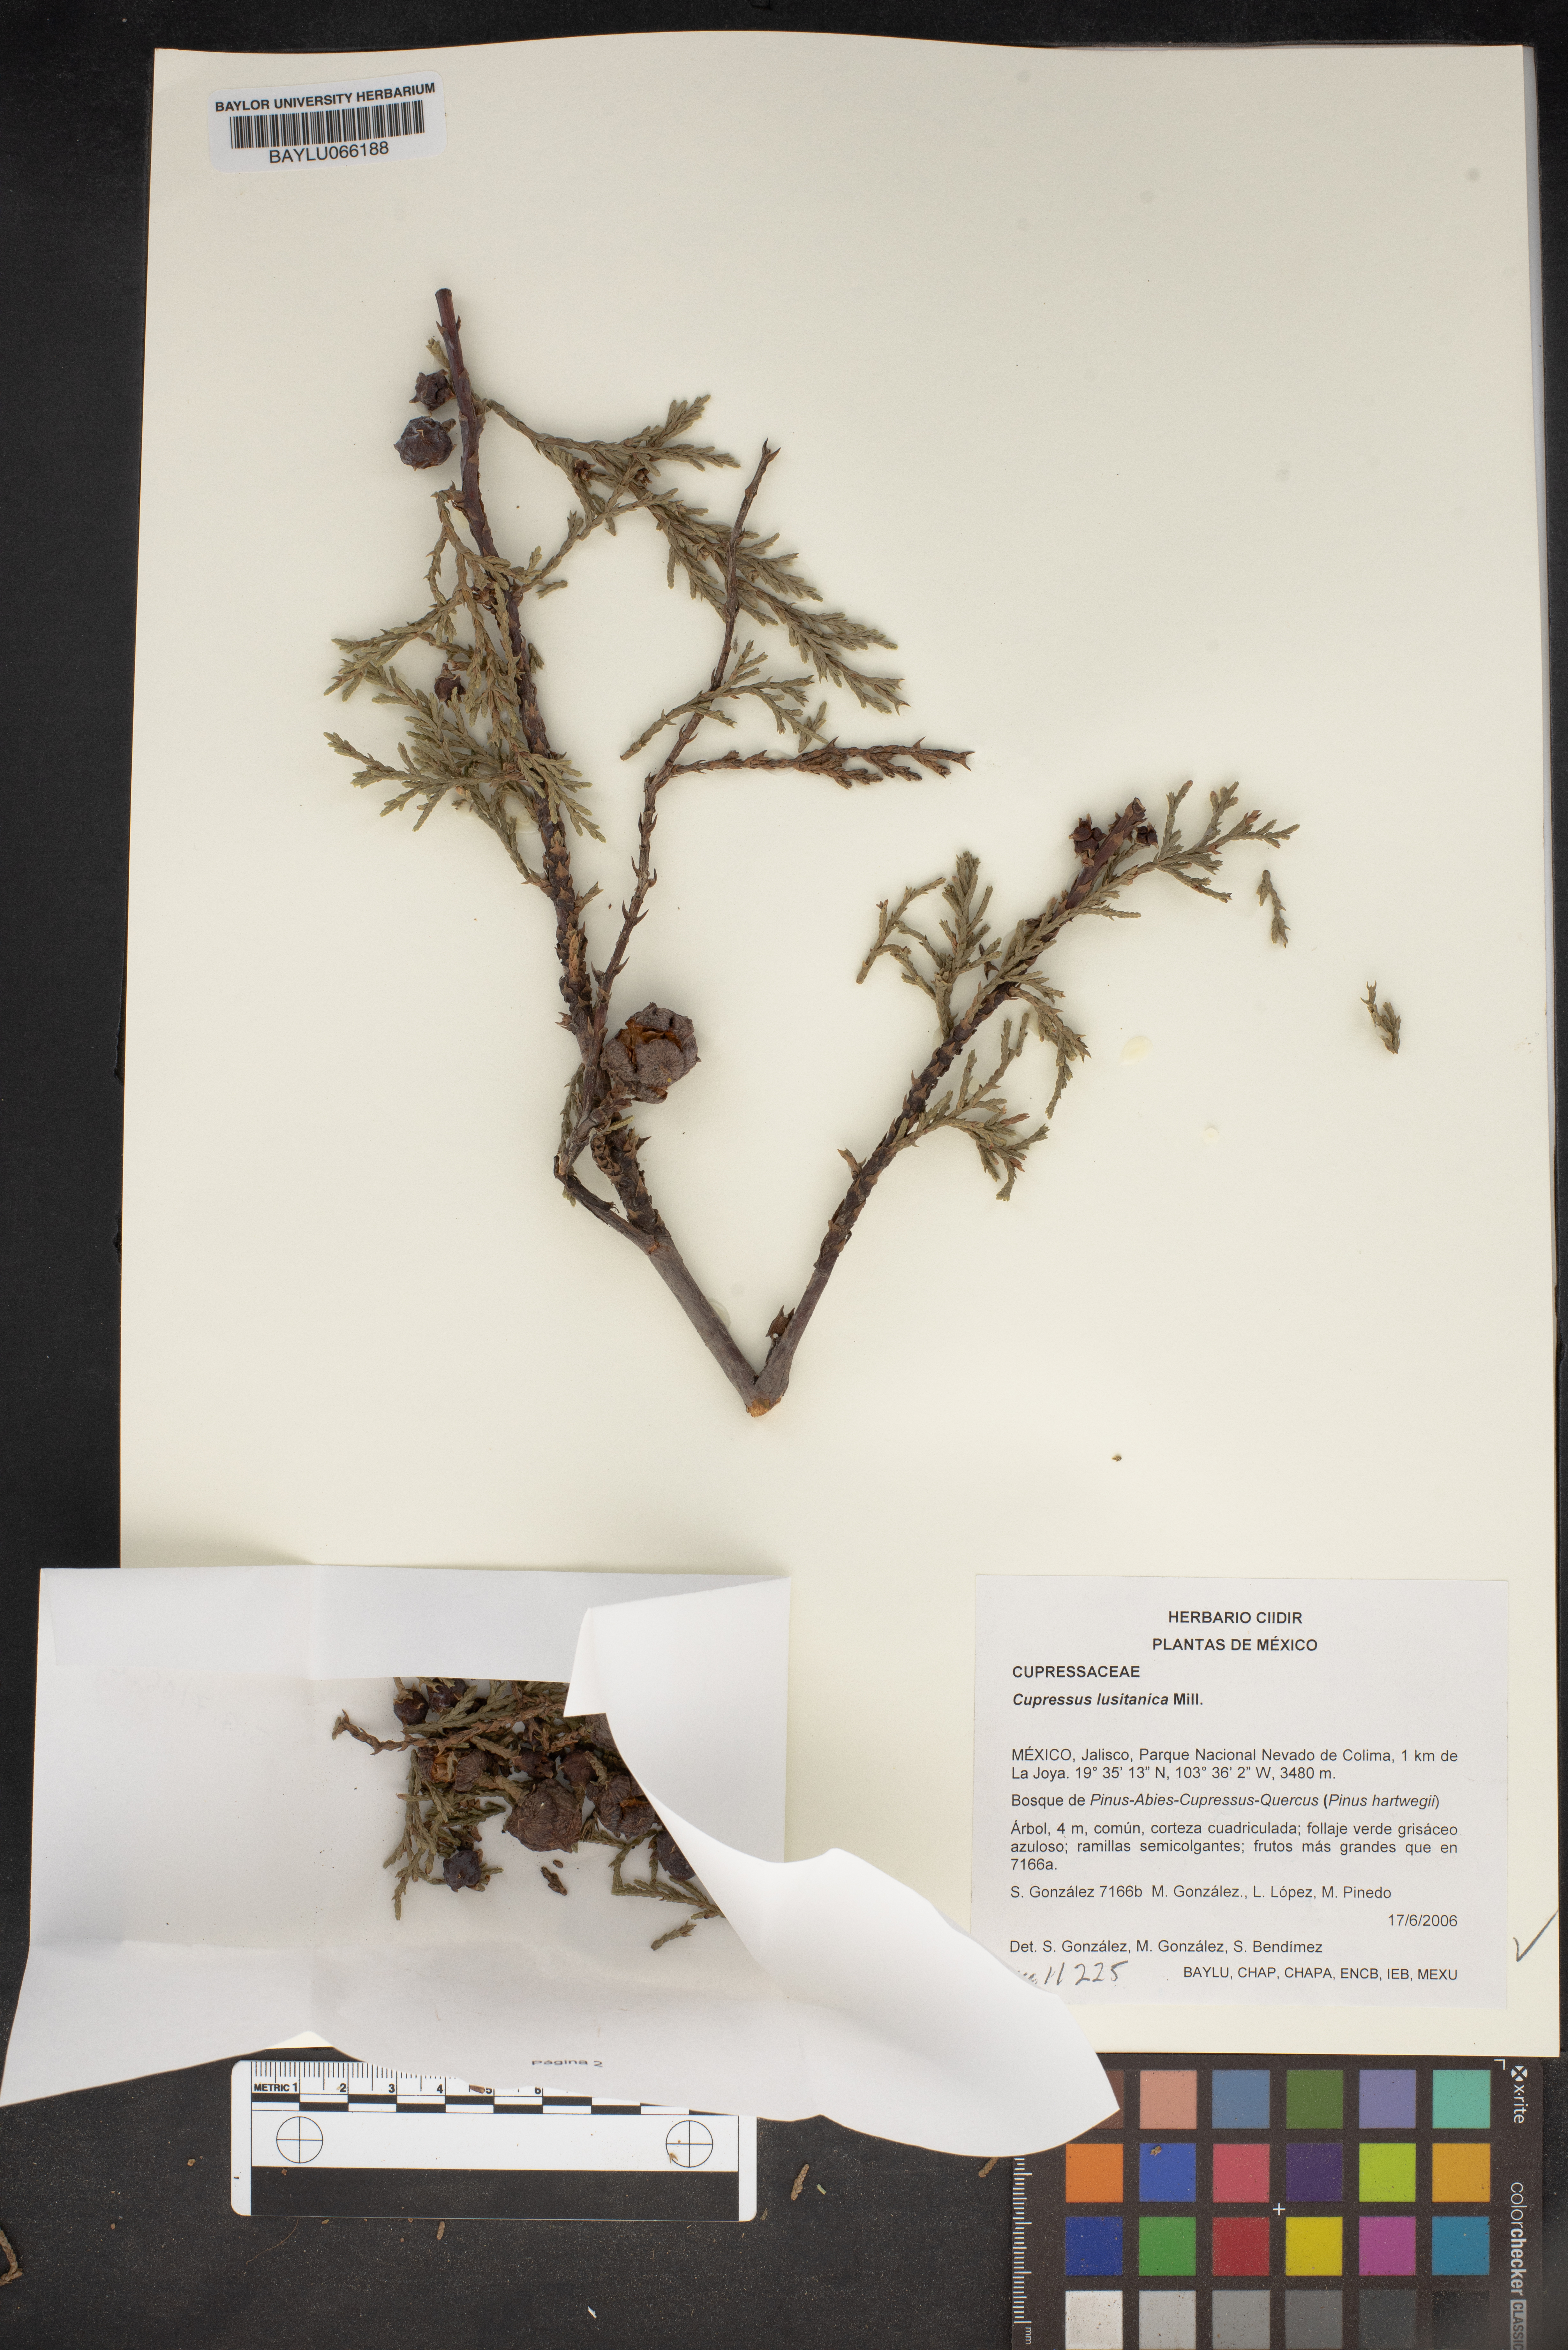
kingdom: Plantae
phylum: Tracheophyta
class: Pinopsida
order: Pinales
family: Cupressaceae
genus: Cupressus
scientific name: Cupressus lusitanica
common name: Mexican cypress
